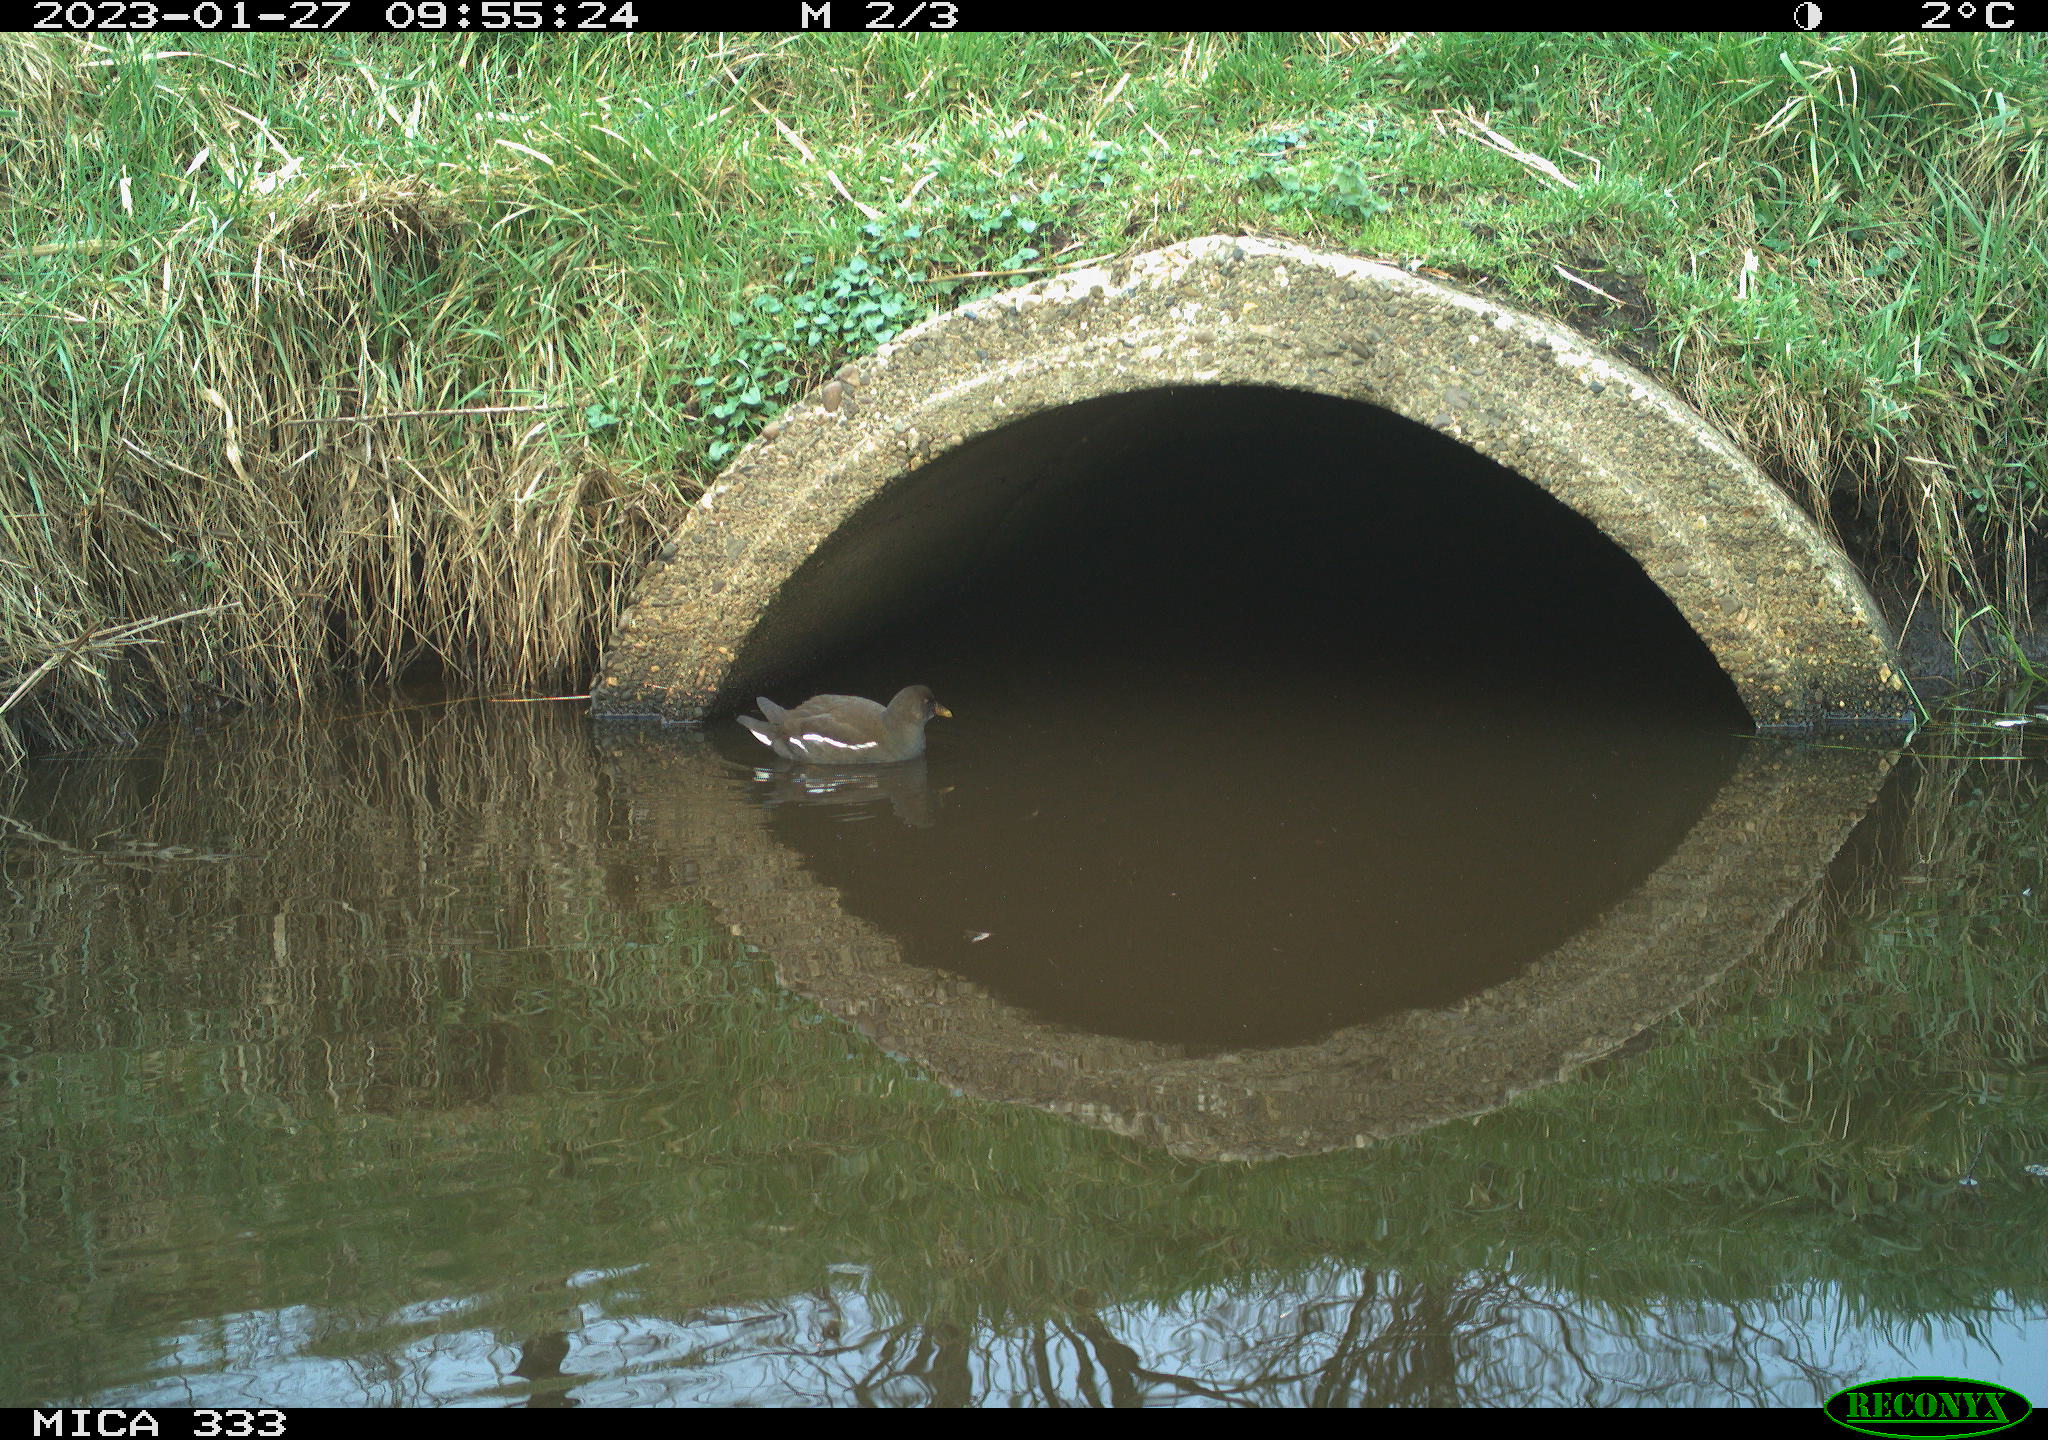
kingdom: Animalia
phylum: Chordata
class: Aves
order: Gruiformes
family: Rallidae
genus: Gallinula
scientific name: Gallinula chloropus
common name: Common moorhen
